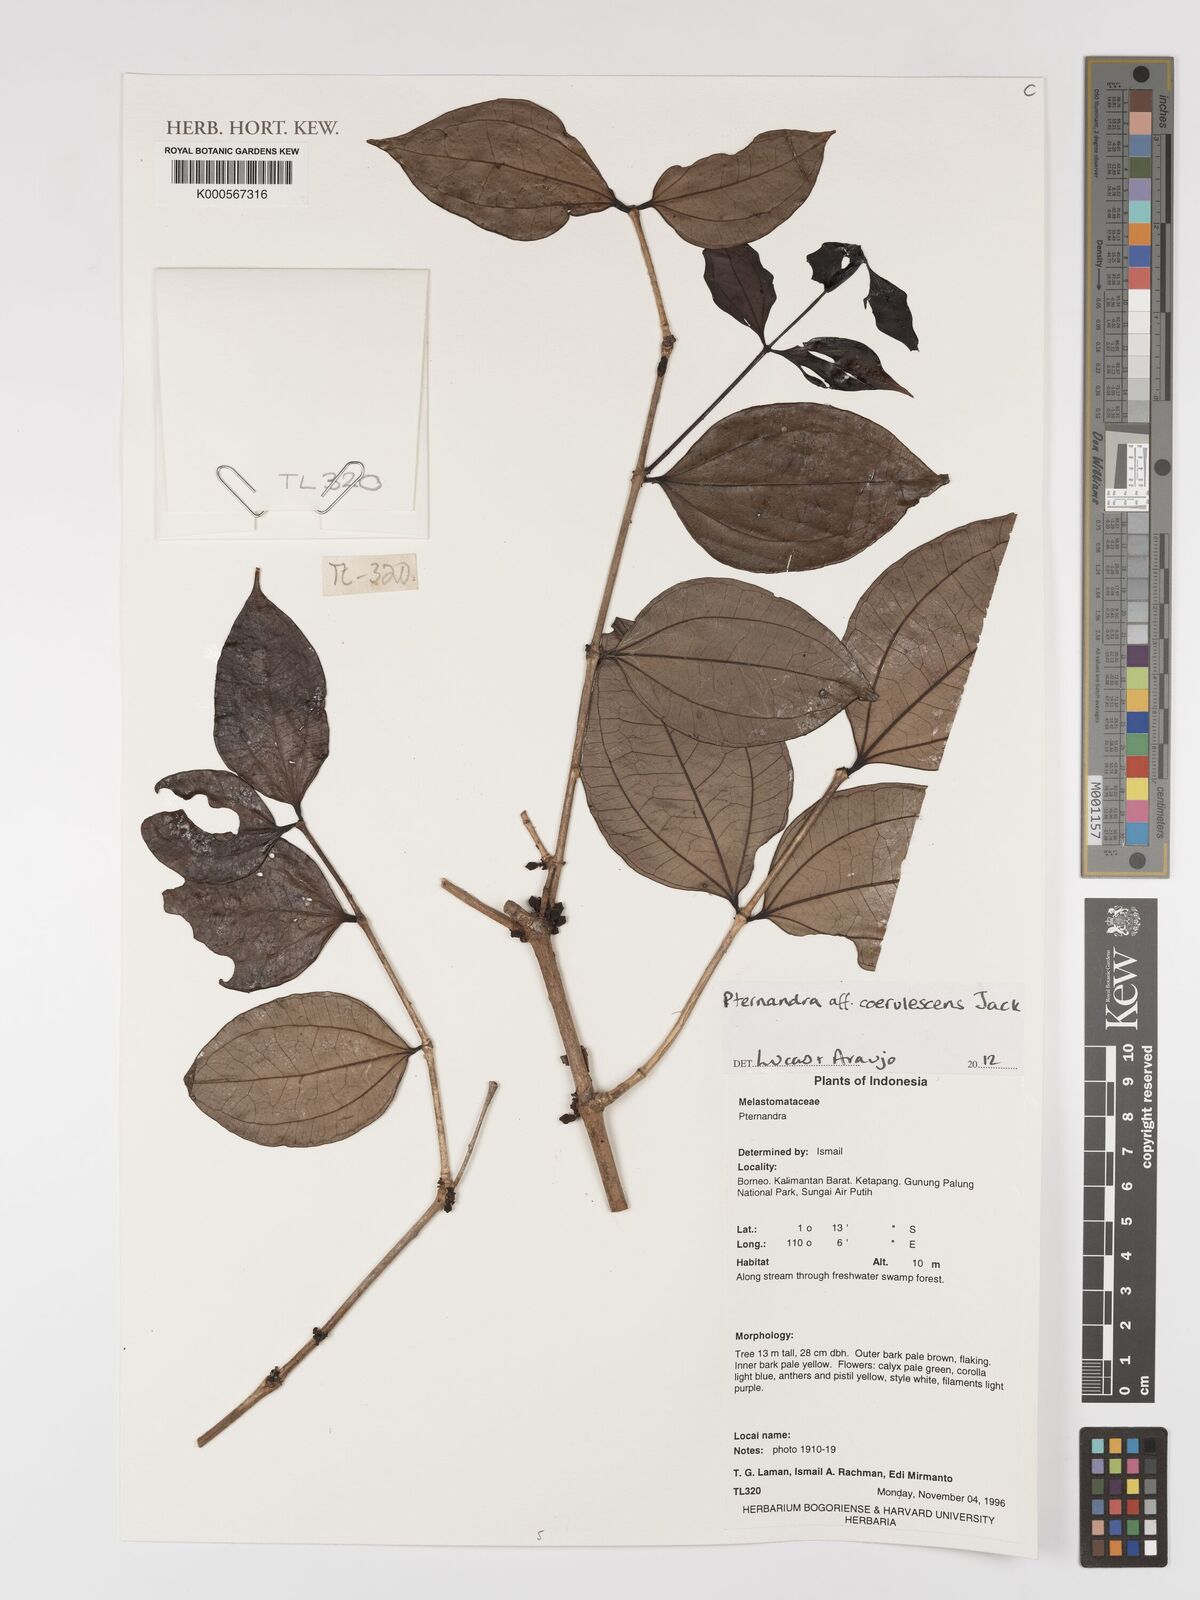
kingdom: Plantae
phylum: Tracheophyta
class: Magnoliopsida
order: Myrtales
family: Melastomataceae
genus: Pternandra
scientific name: Pternandra
